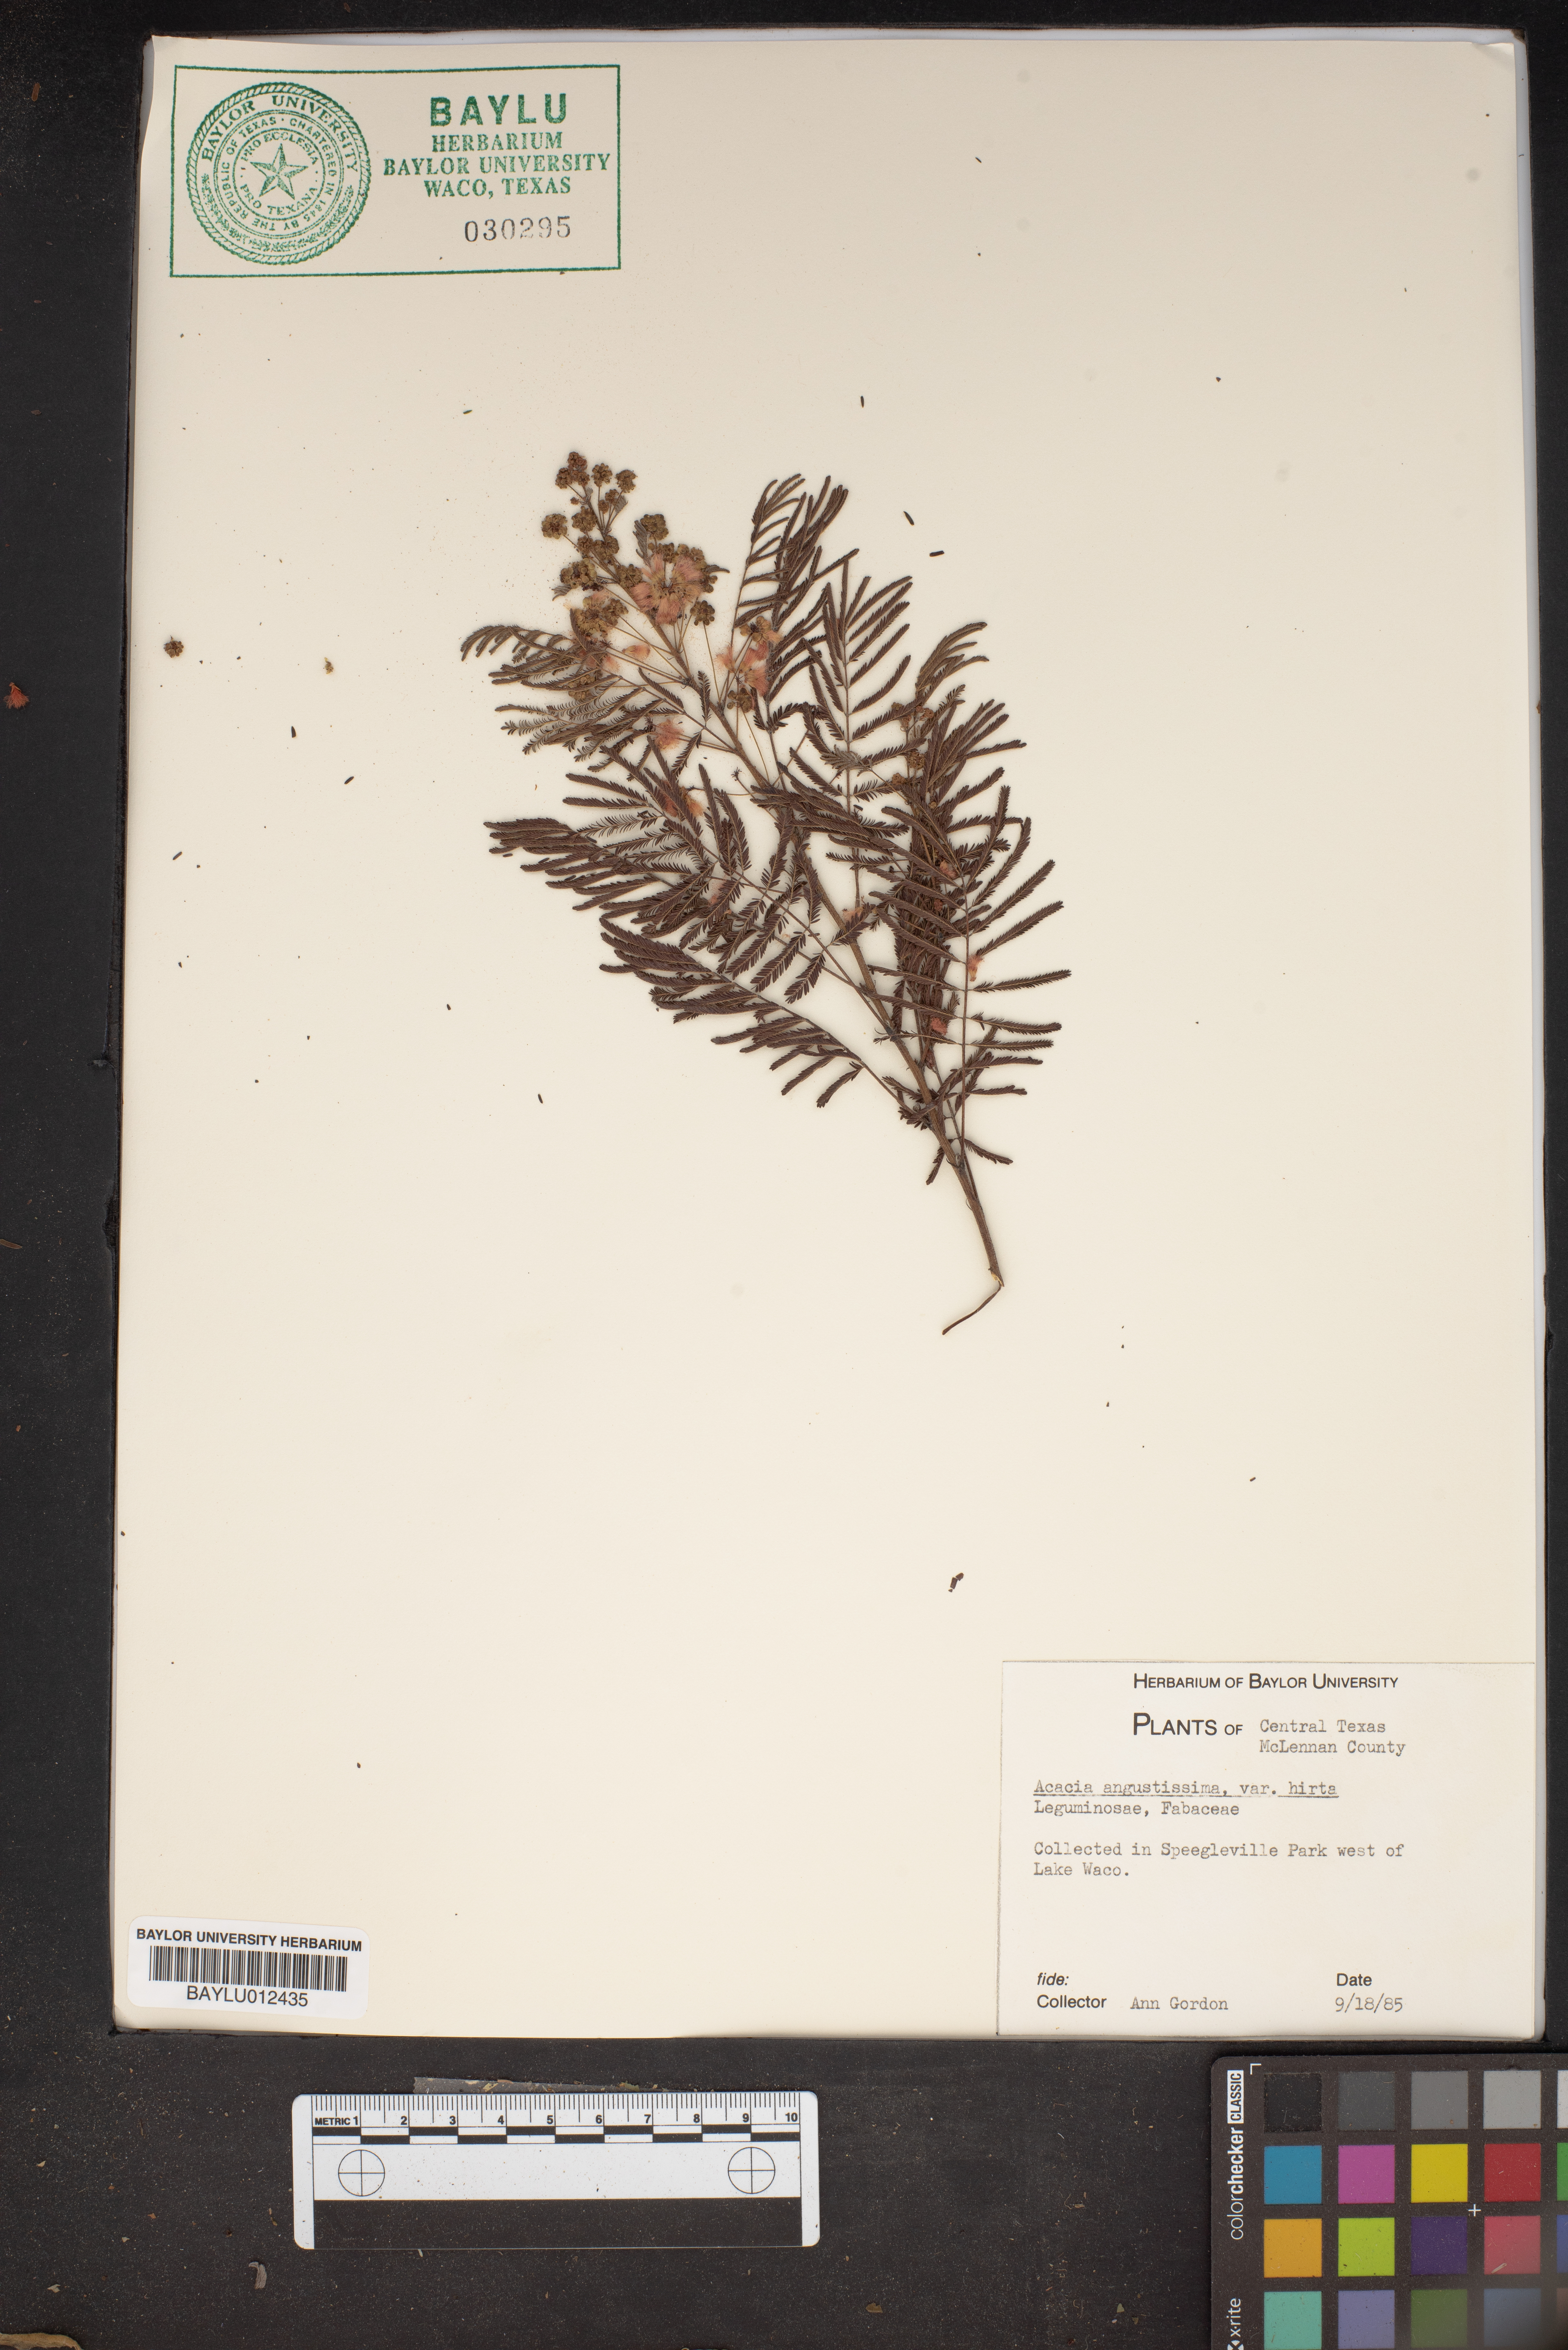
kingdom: Plantae
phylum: Tracheophyta
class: Magnoliopsida
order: Fabales
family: Fabaceae
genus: Acaciella
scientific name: Acaciella angustissima
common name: Prairie acacia
